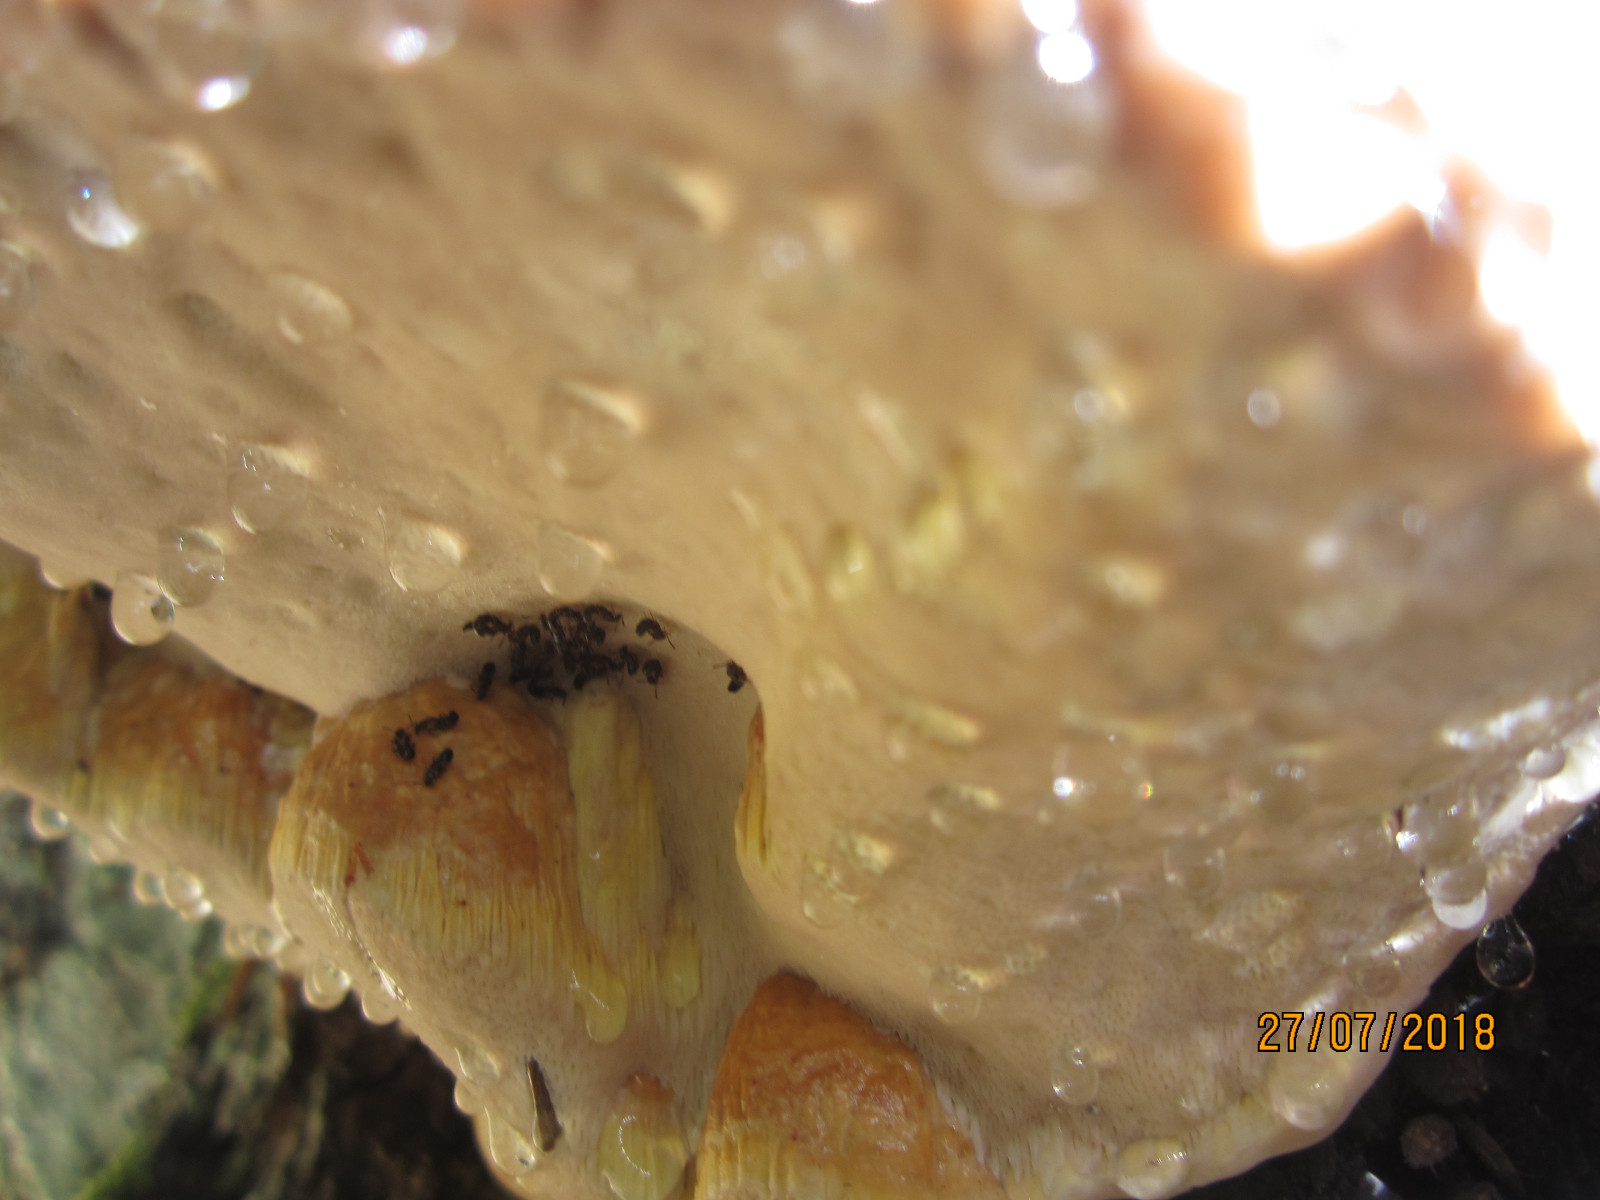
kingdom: Fungi
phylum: Basidiomycota
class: Agaricomycetes
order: Polyporales
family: Fomitopsidaceae
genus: Fomitopsis
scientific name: Fomitopsis pinicola
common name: randbæltet hovporesvamp
